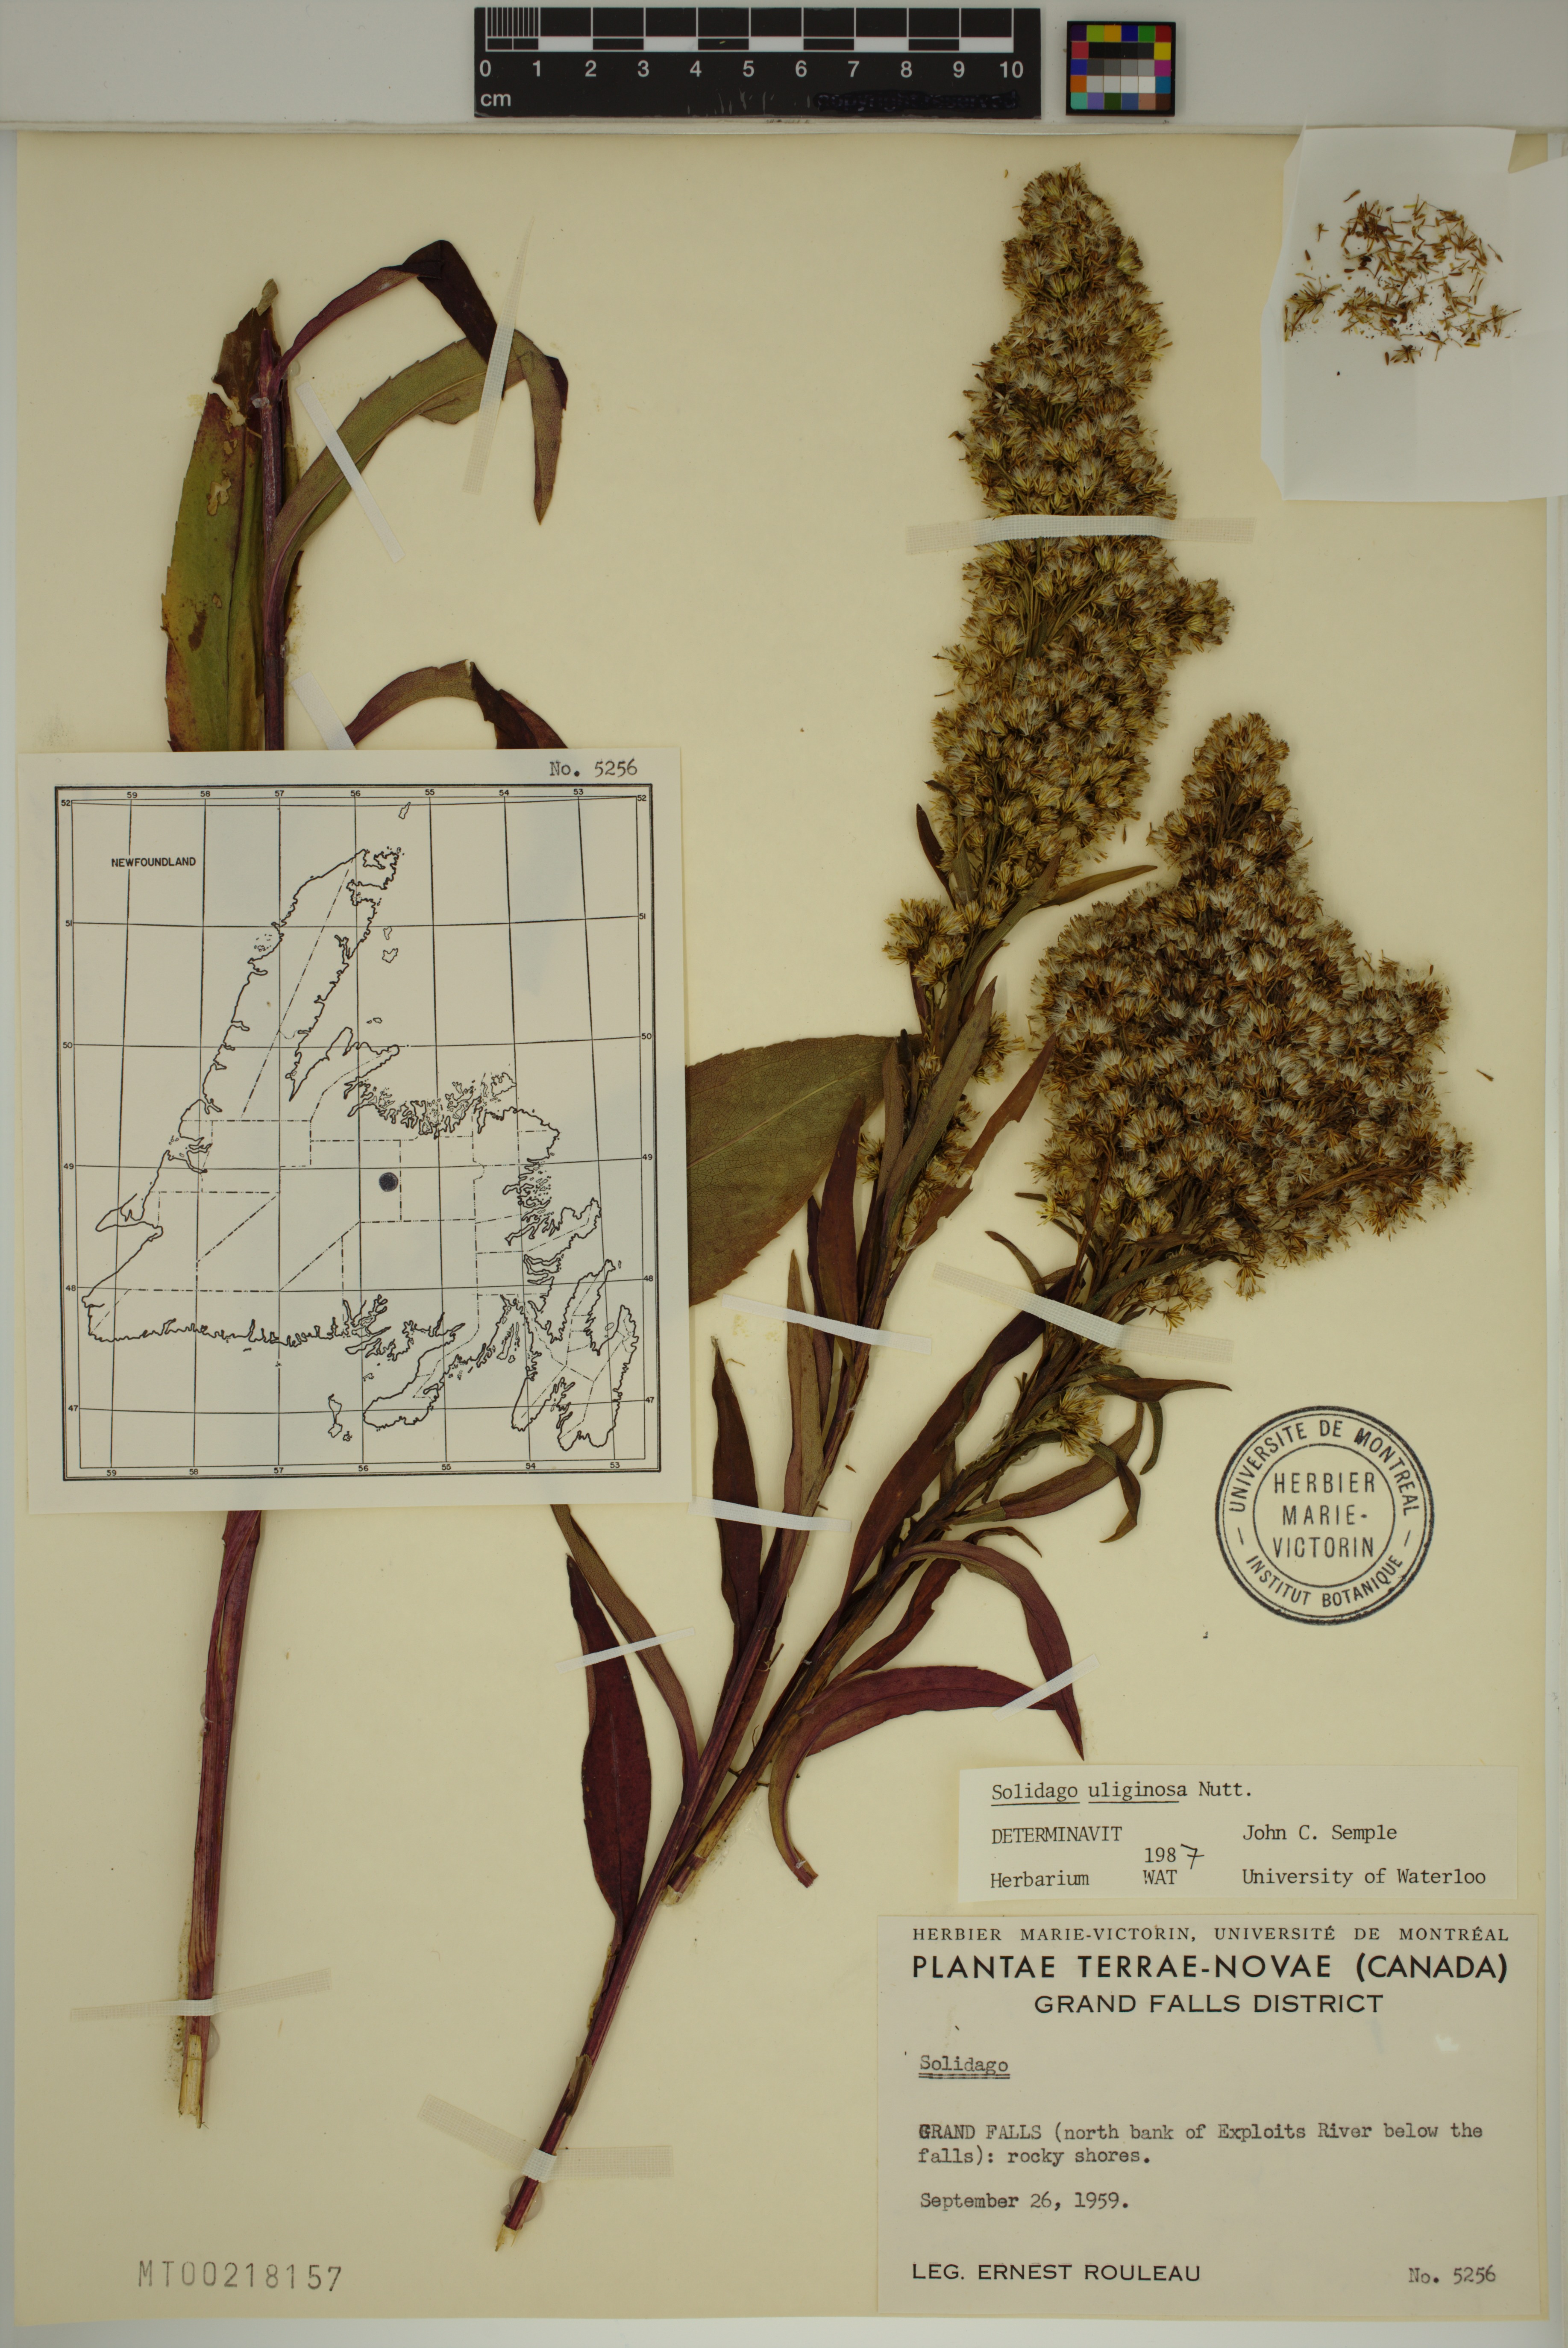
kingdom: Plantae
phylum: Tracheophyta
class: Magnoliopsida
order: Asterales
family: Asteraceae
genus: Solidago
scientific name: Solidago uliginosa
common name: Bog goldenrod
